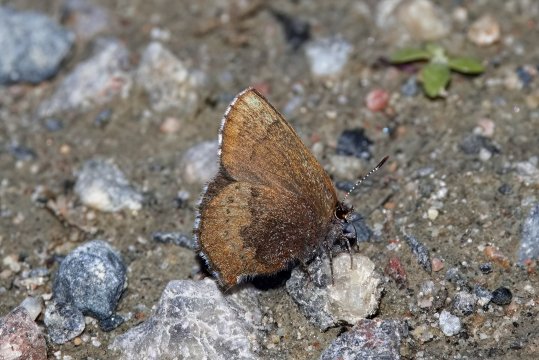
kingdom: Animalia
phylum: Arthropoda
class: Insecta
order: Lepidoptera
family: Lycaenidae
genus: Incisalia
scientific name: Incisalia irioides
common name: Brown Elfin
